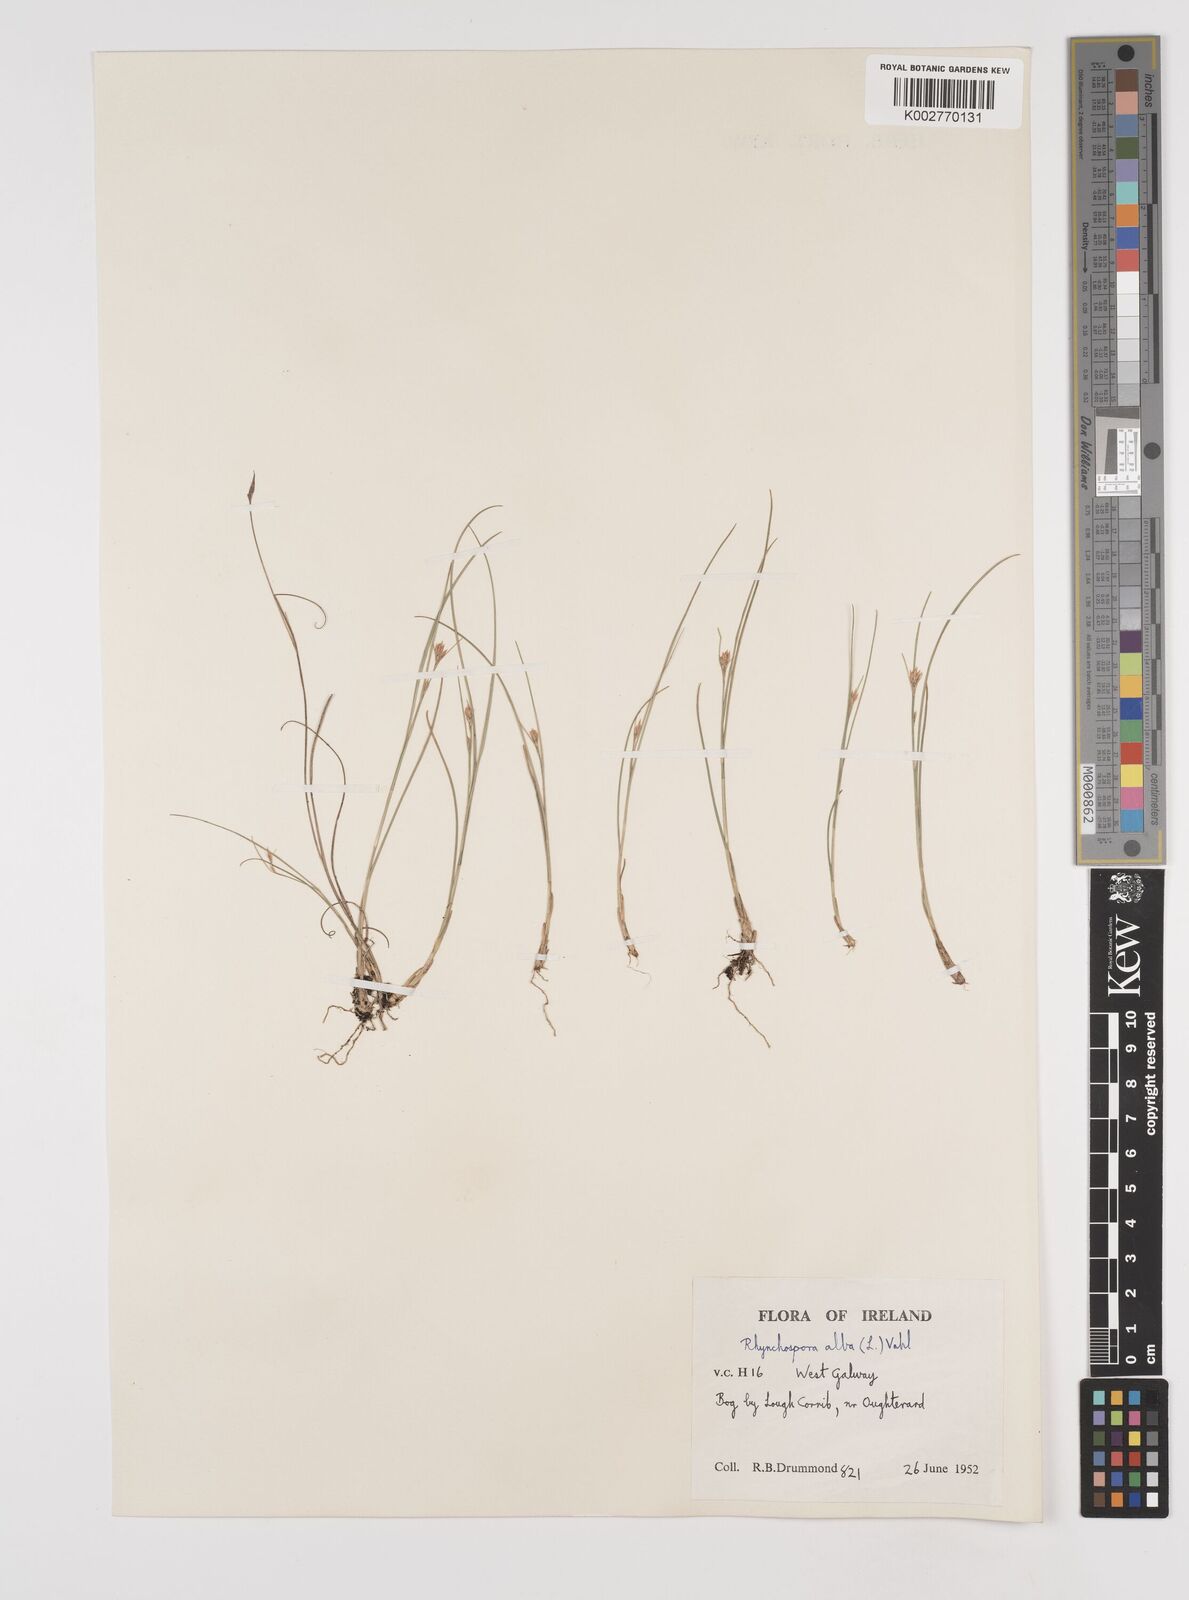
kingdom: Plantae
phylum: Tracheophyta
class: Liliopsida
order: Poales
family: Cyperaceae
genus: Rhynchospora
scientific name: Rhynchospora alba
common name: White beak-sedge
